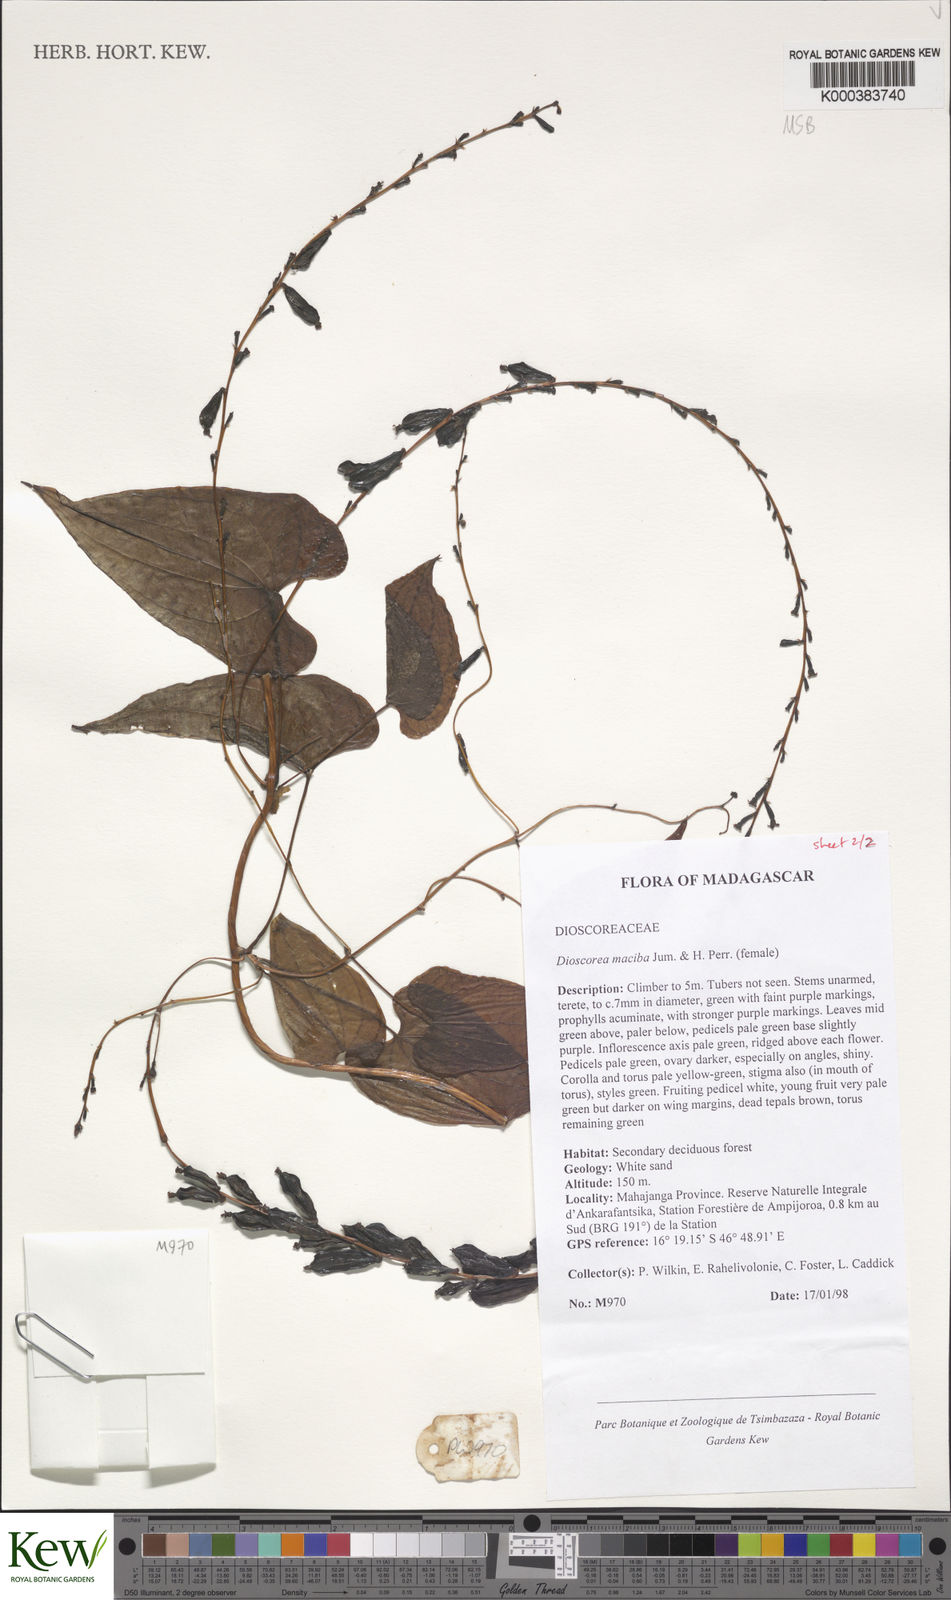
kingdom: Plantae
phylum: Tracheophyta
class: Liliopsida
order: Dioscoreales
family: Dioscoreaceae
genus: Dioscorea
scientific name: Dioscorea
